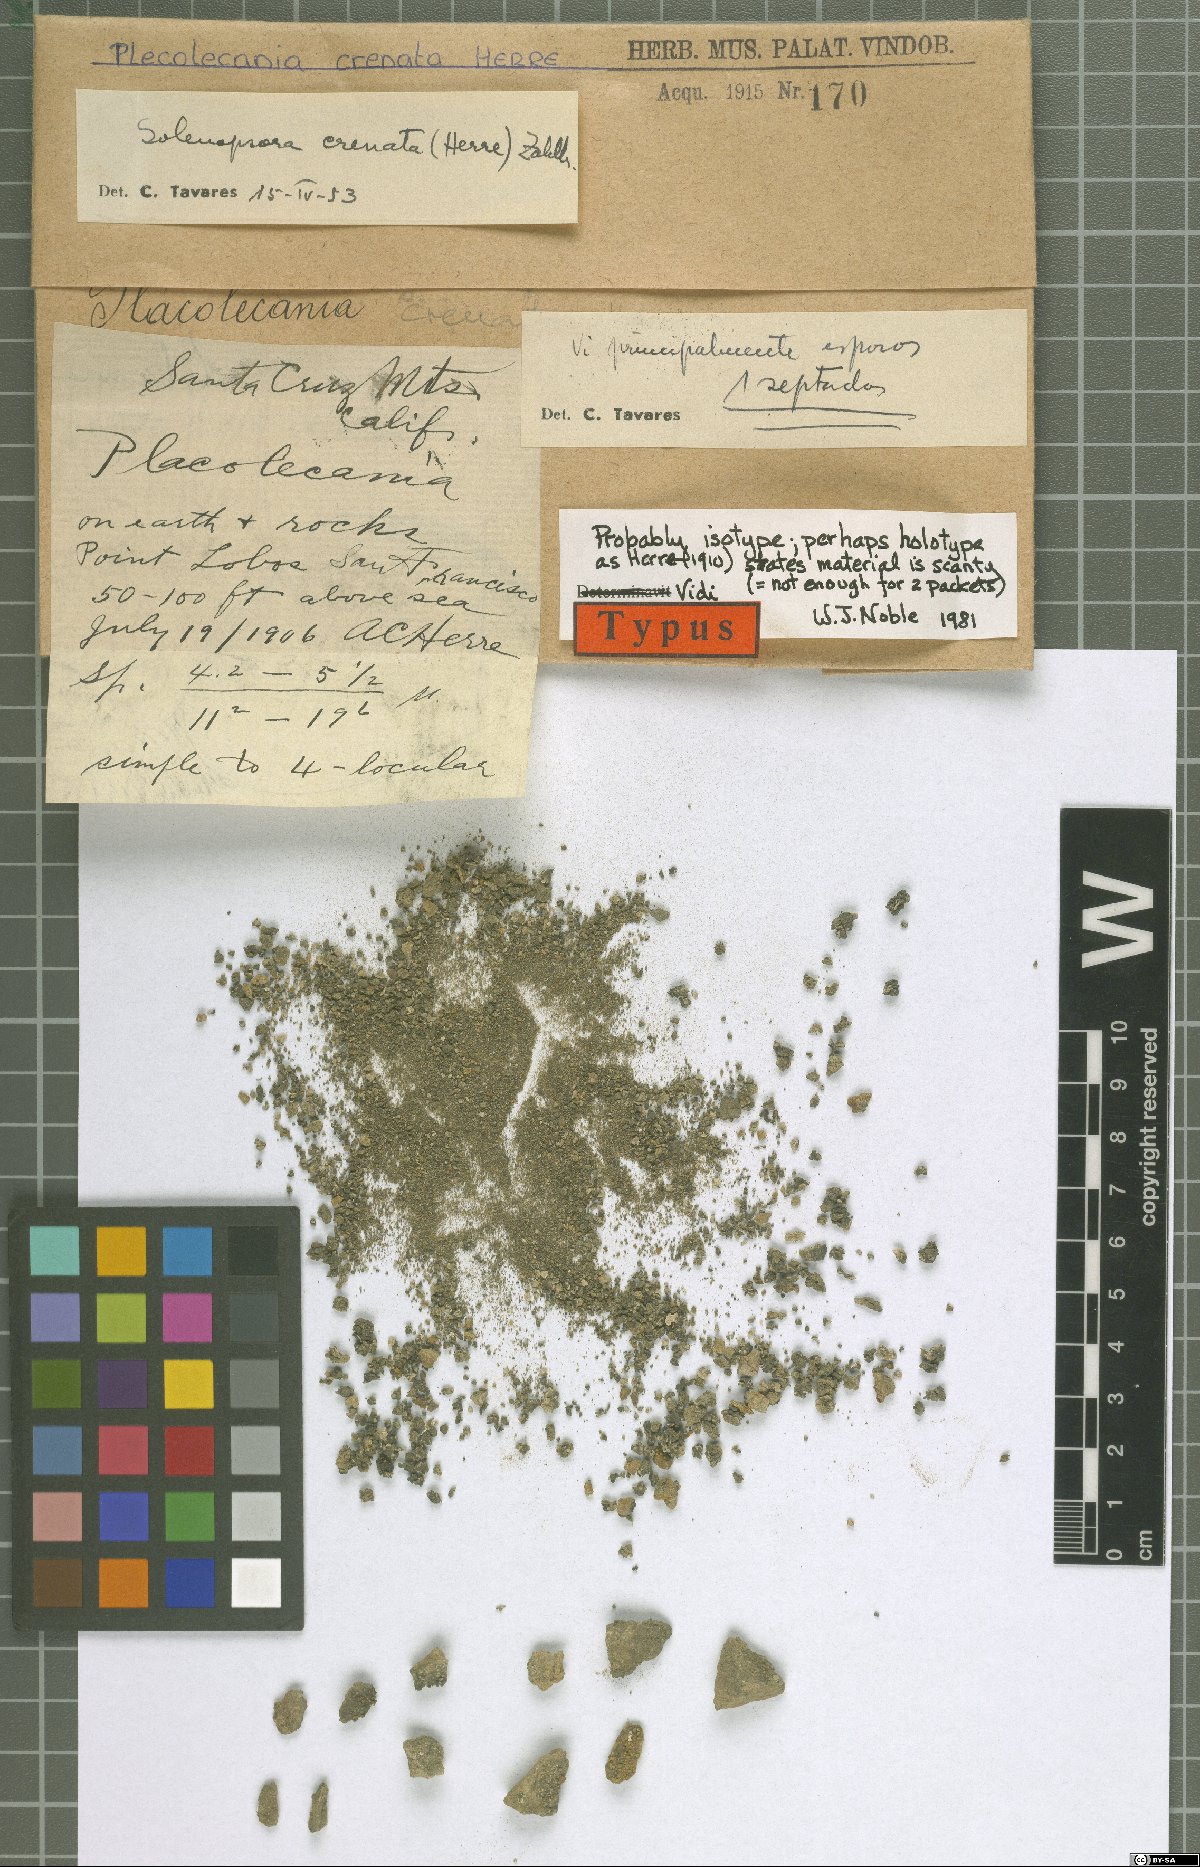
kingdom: Fungi
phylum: Ascomycota
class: Lecanoromycetes
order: Lecanorales
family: Catillariaceae
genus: Solenopsora
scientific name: Solenopsora crenata
